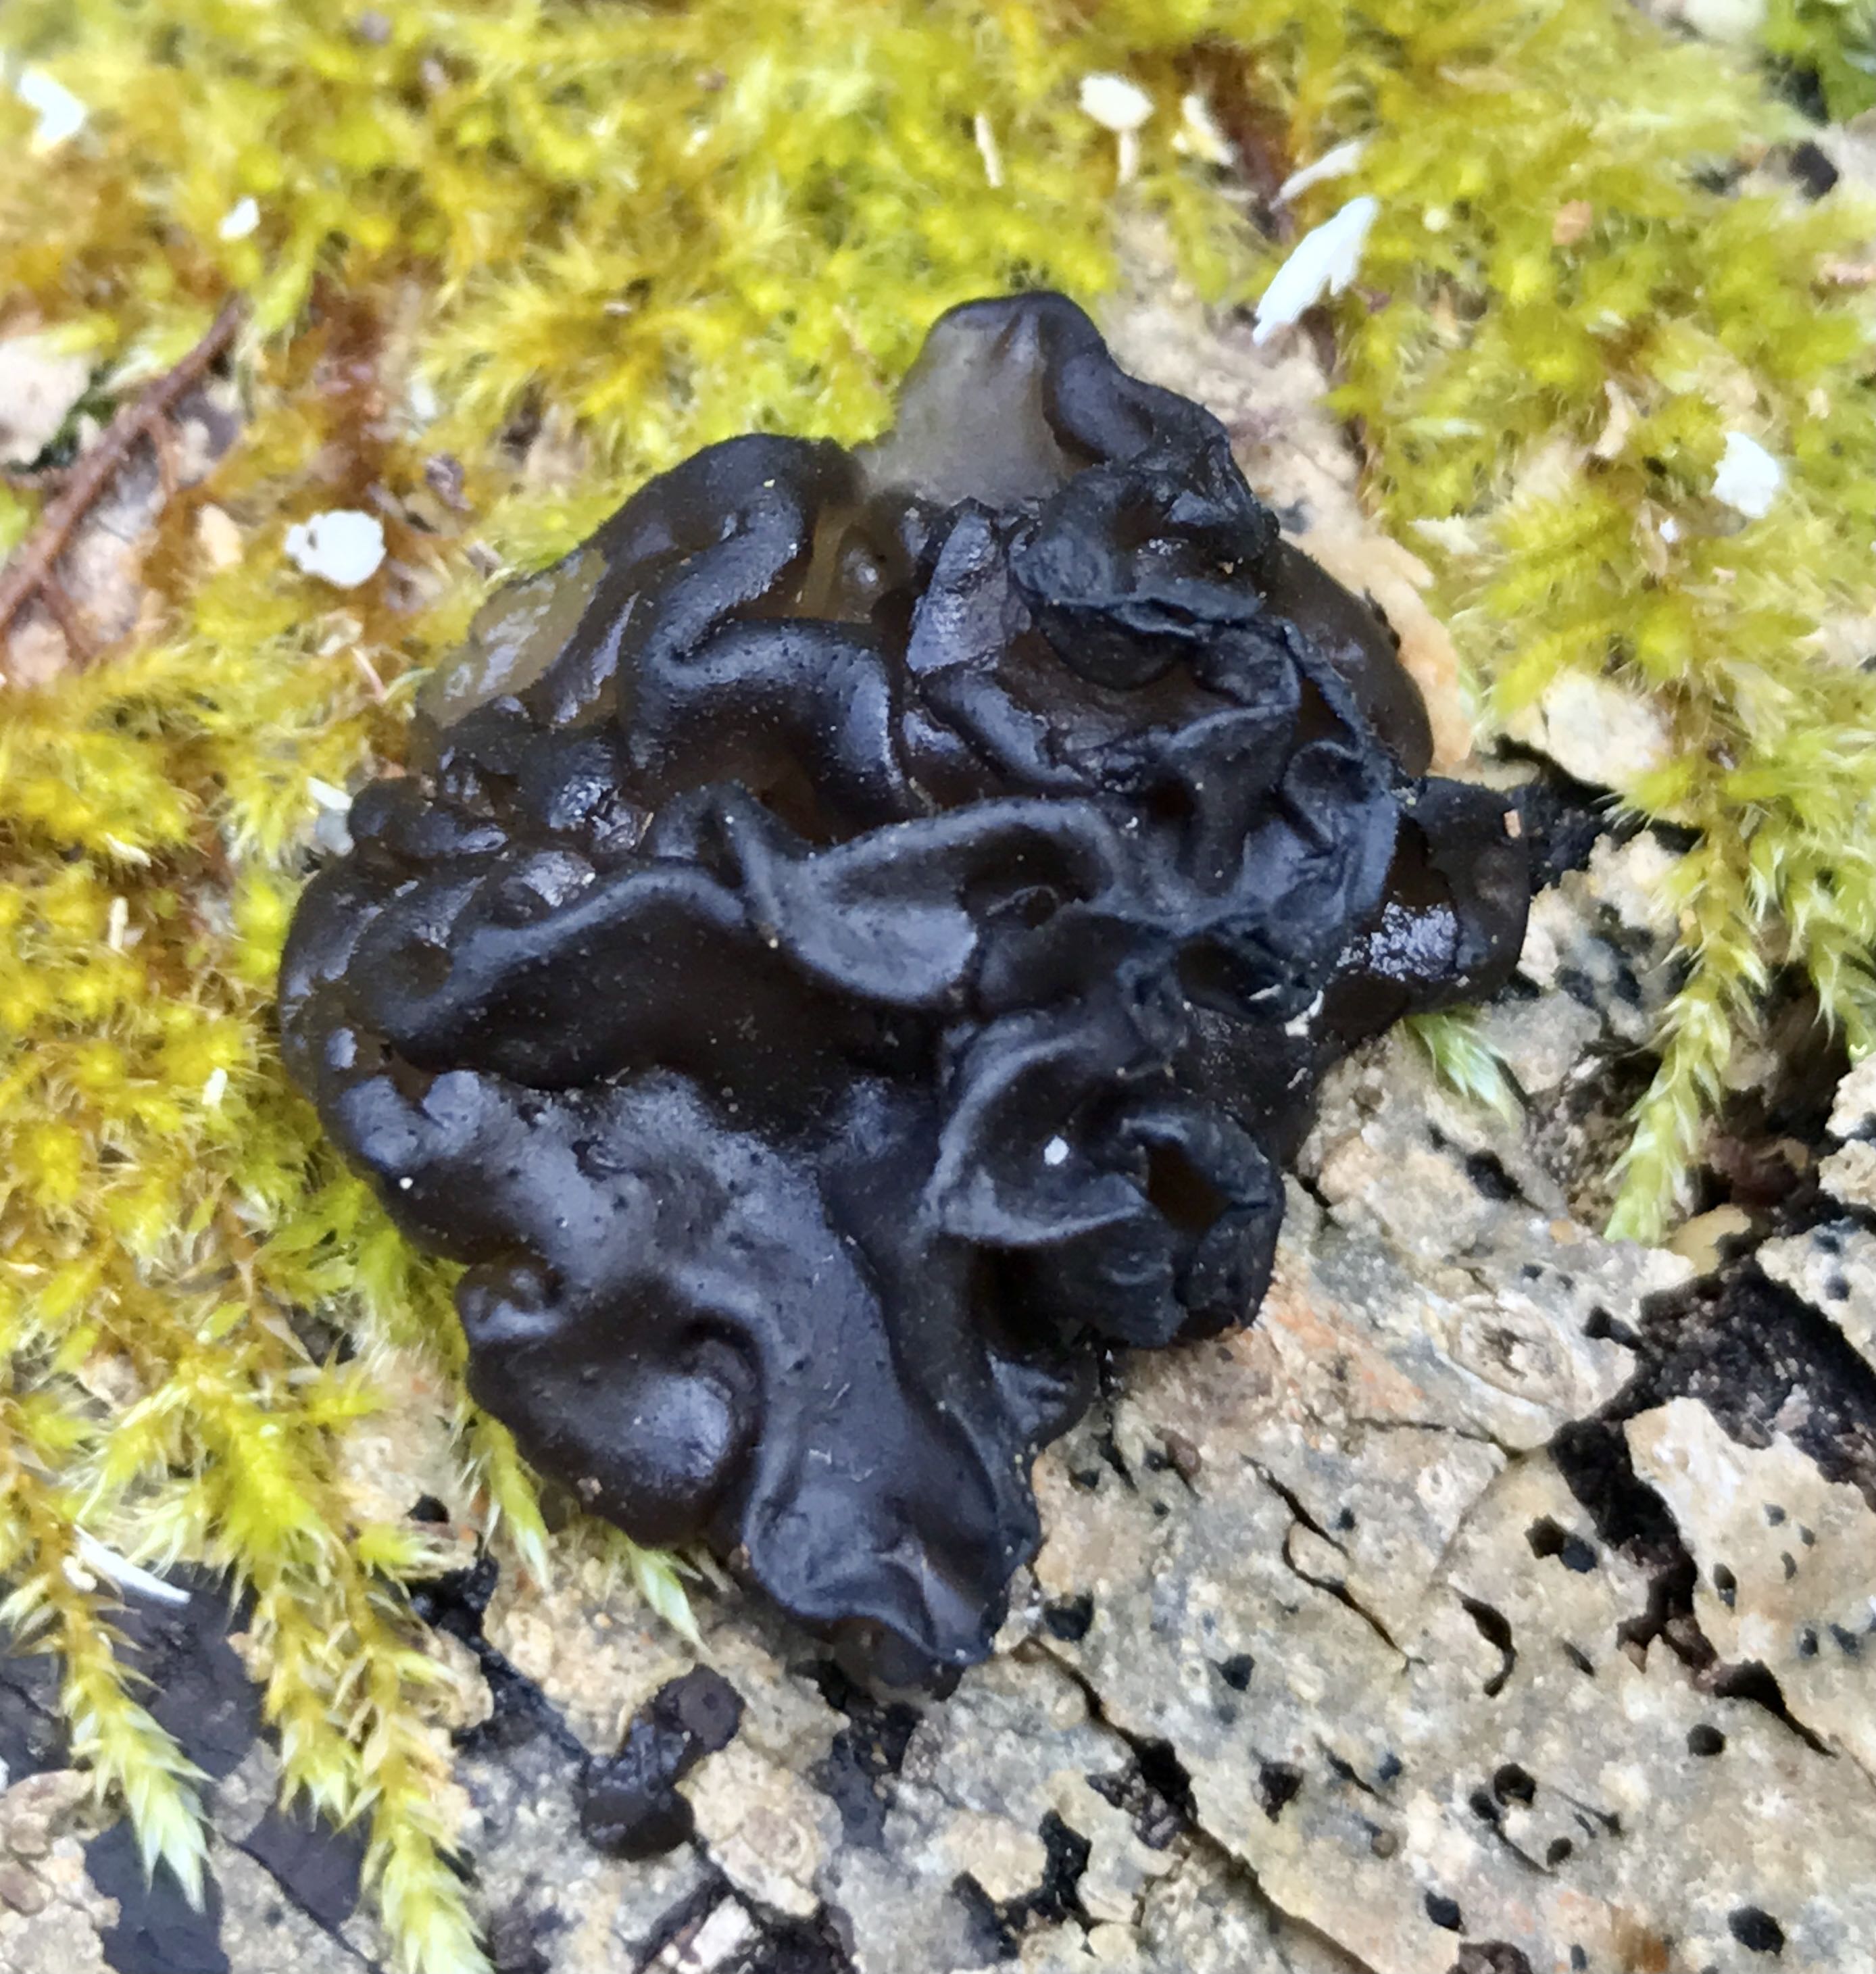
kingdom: Fungi
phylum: Basidiomycota
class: Agaricomycetes
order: Auriculariales
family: Auriculariaceae
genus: Exidia
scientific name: Exidia nigricans
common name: almindelig bævretop
